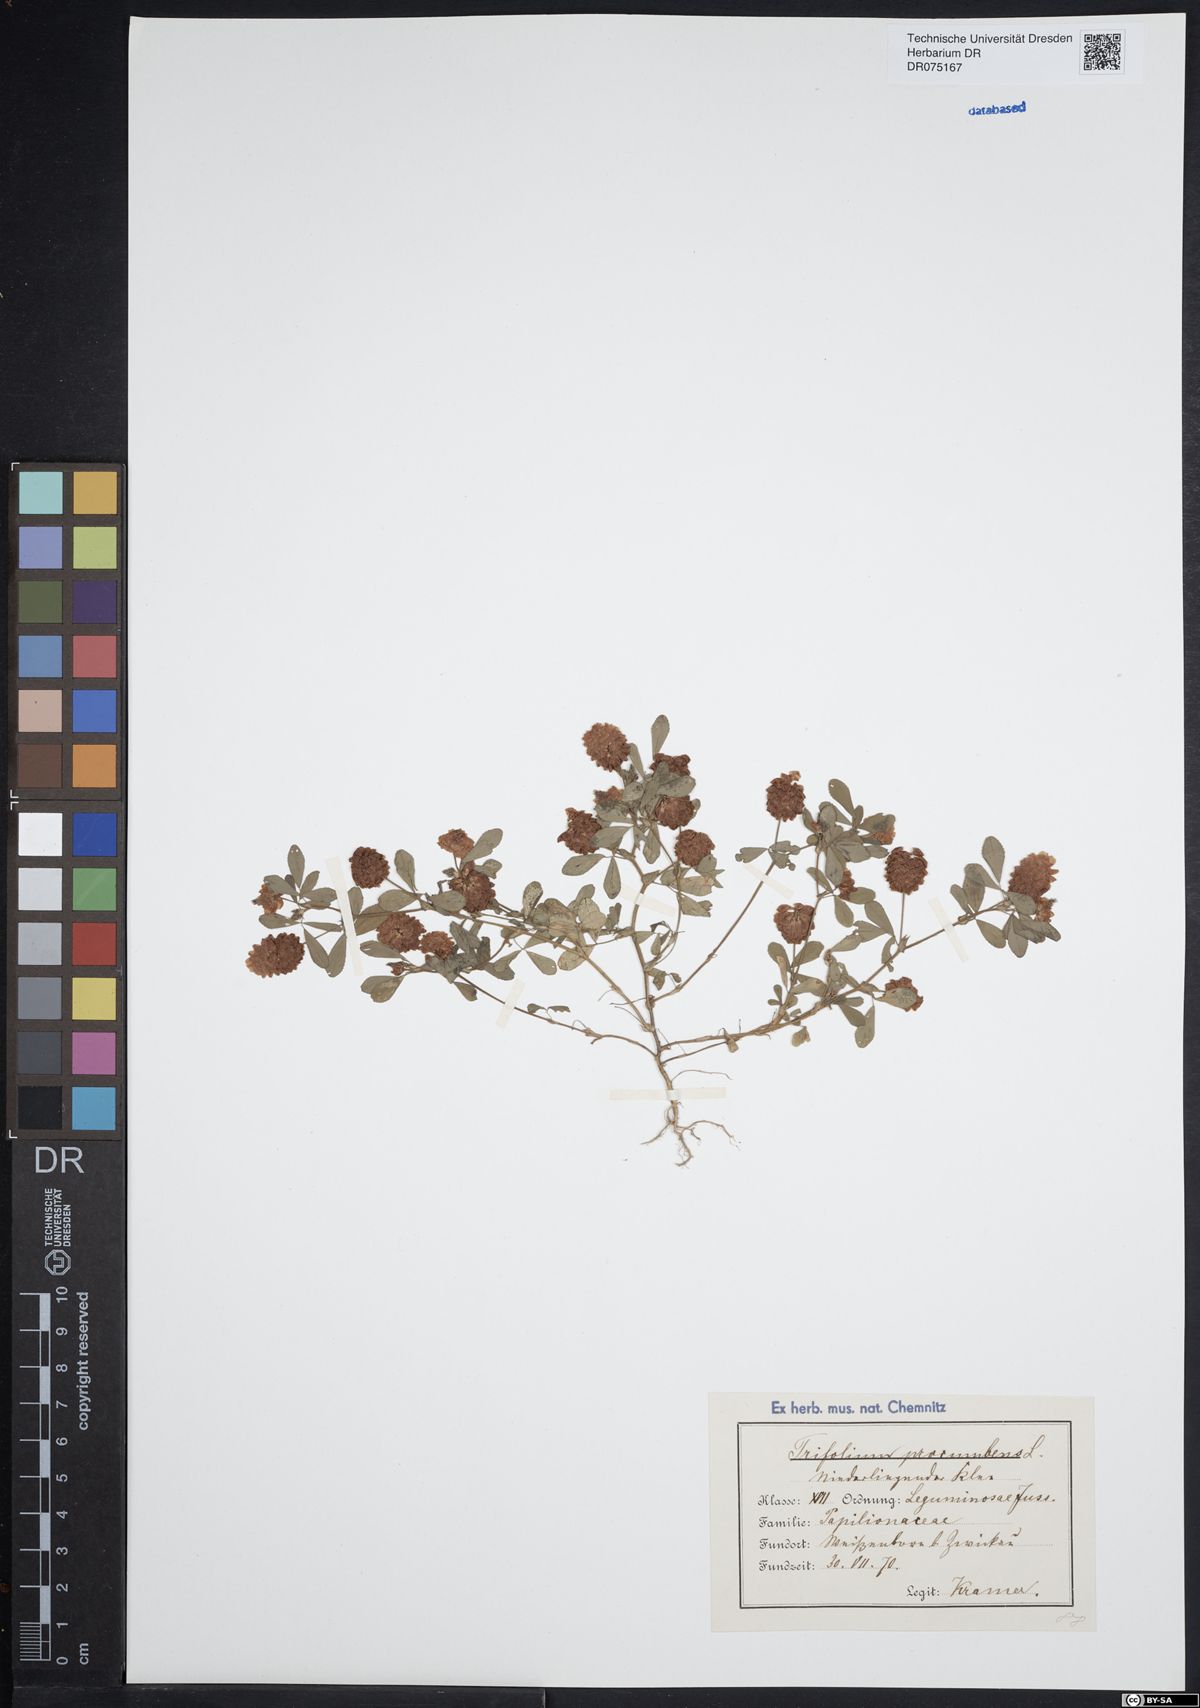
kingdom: Plantae
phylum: Tracheophyta
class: Magnoliopsida
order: Fabales
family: Fabaceae
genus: Trifolium
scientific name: Trifolium campestre
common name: Field clover
